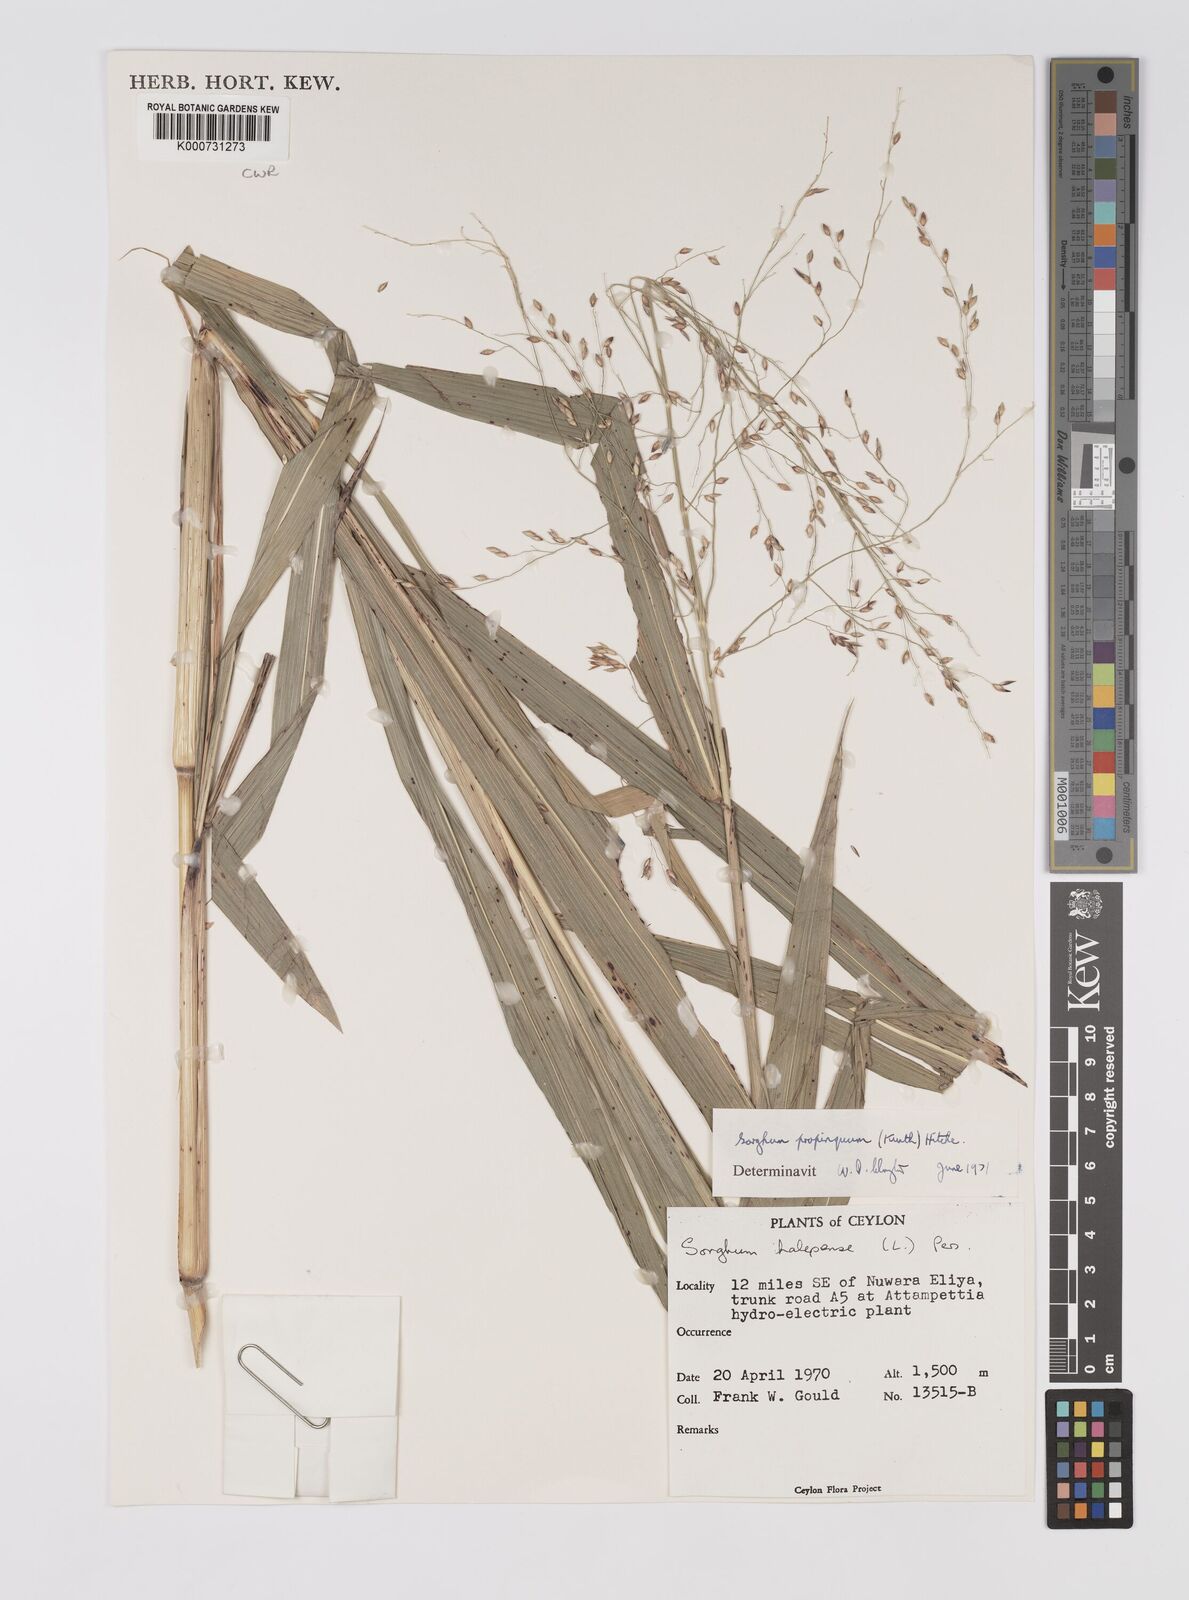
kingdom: Plantae
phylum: Tracheophyta
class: Liliopsida
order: Poales
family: Poaceae
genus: Sorghum
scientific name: Sorghum propinquum
